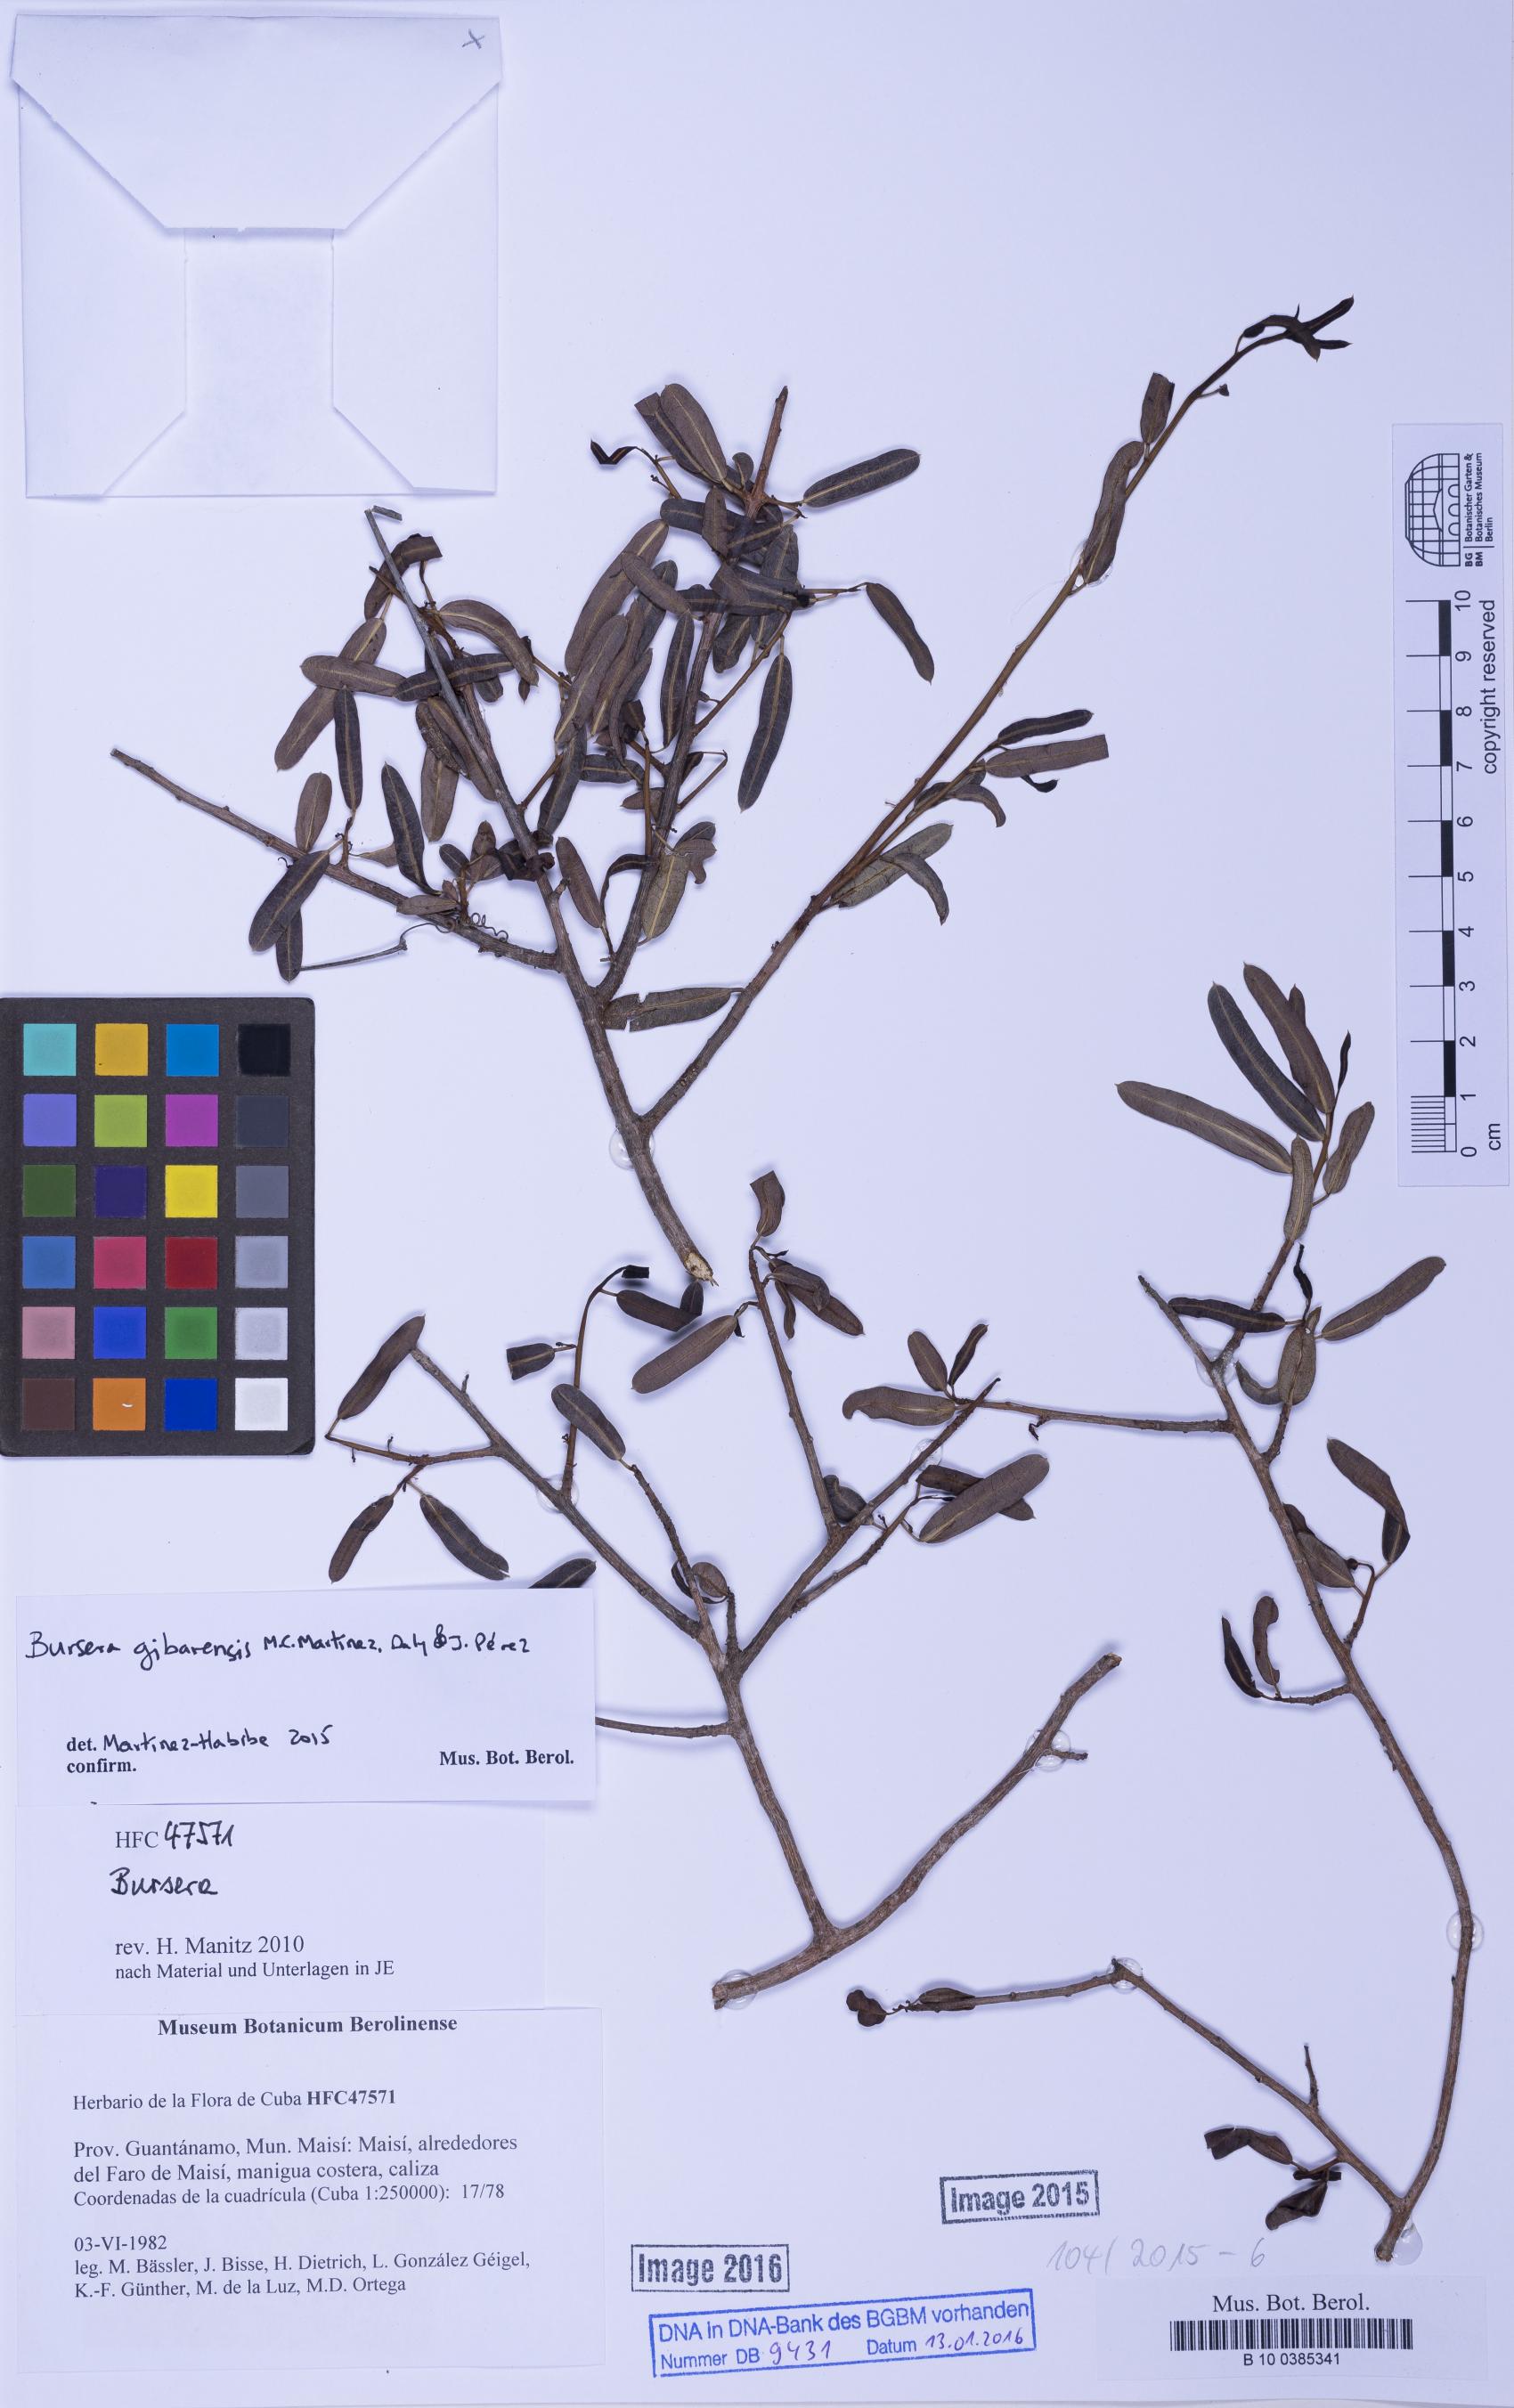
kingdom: Plantae
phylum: Tracheophyta
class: Magnoliopsida
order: Sapindales
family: Burseraceae
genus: Bursera
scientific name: Bursera gibarensis
